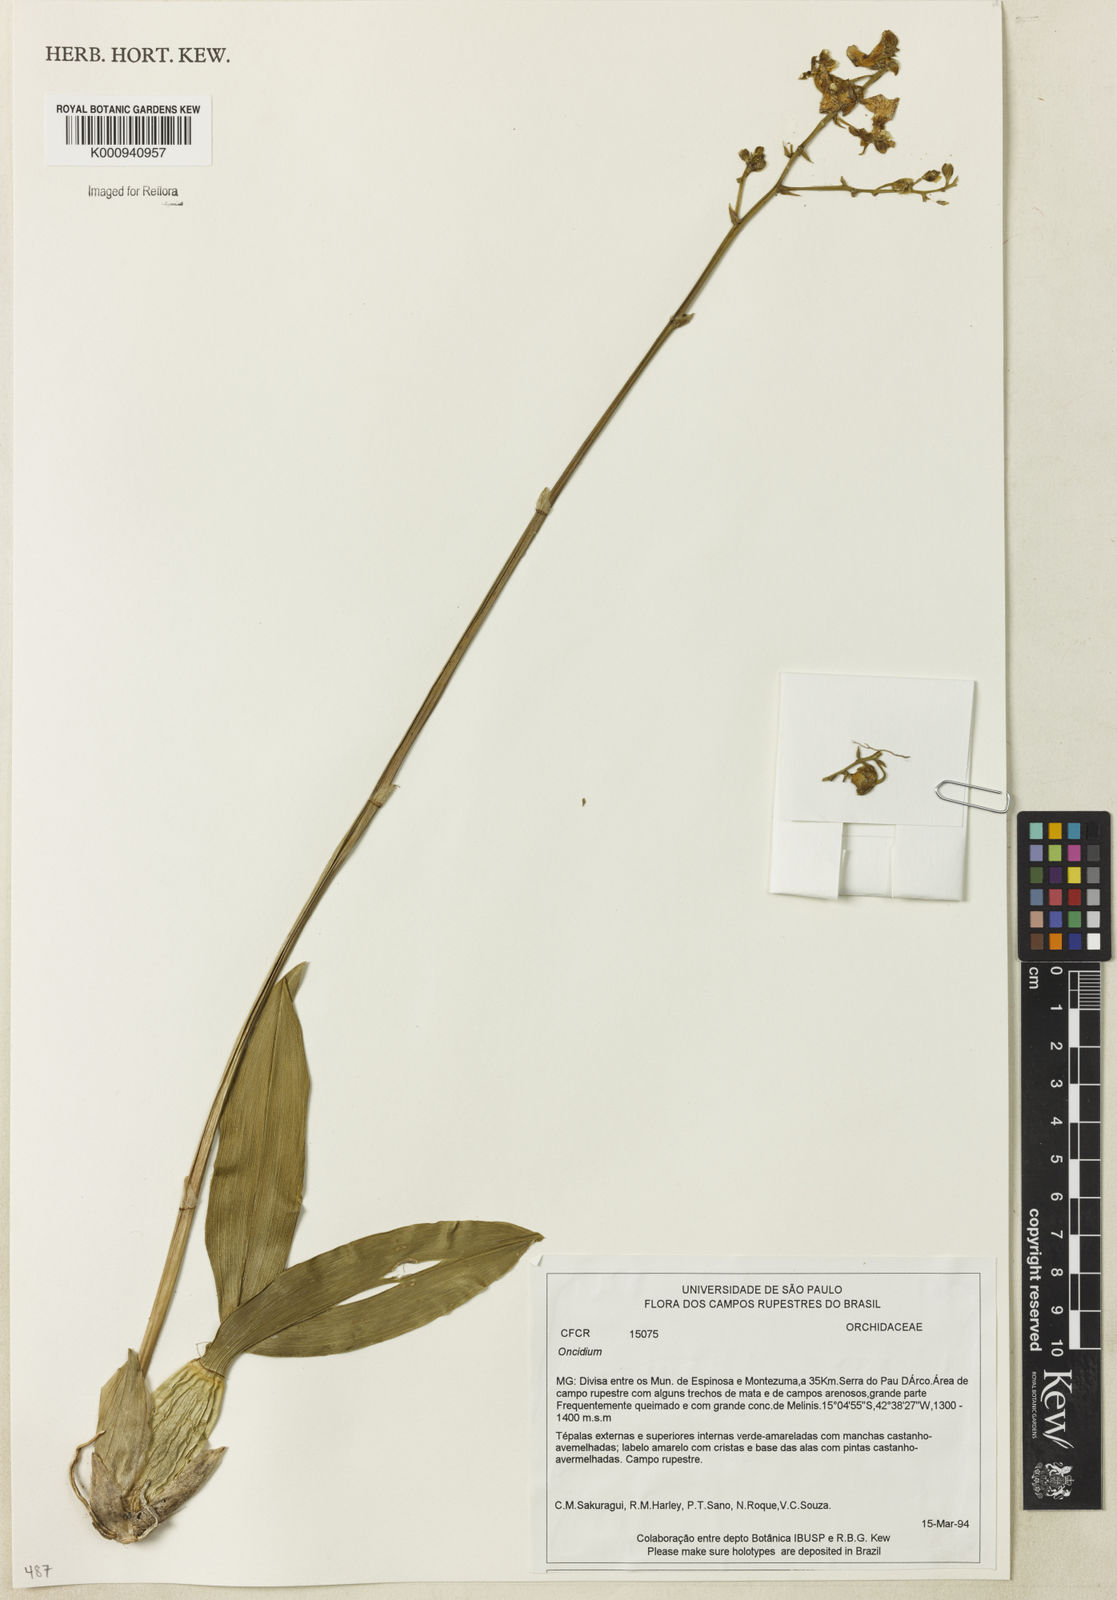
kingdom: Plantae
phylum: Tracheophyta
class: Liliopsida
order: Asparagales
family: Orchidaceae
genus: Oncidium
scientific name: Oncidium
